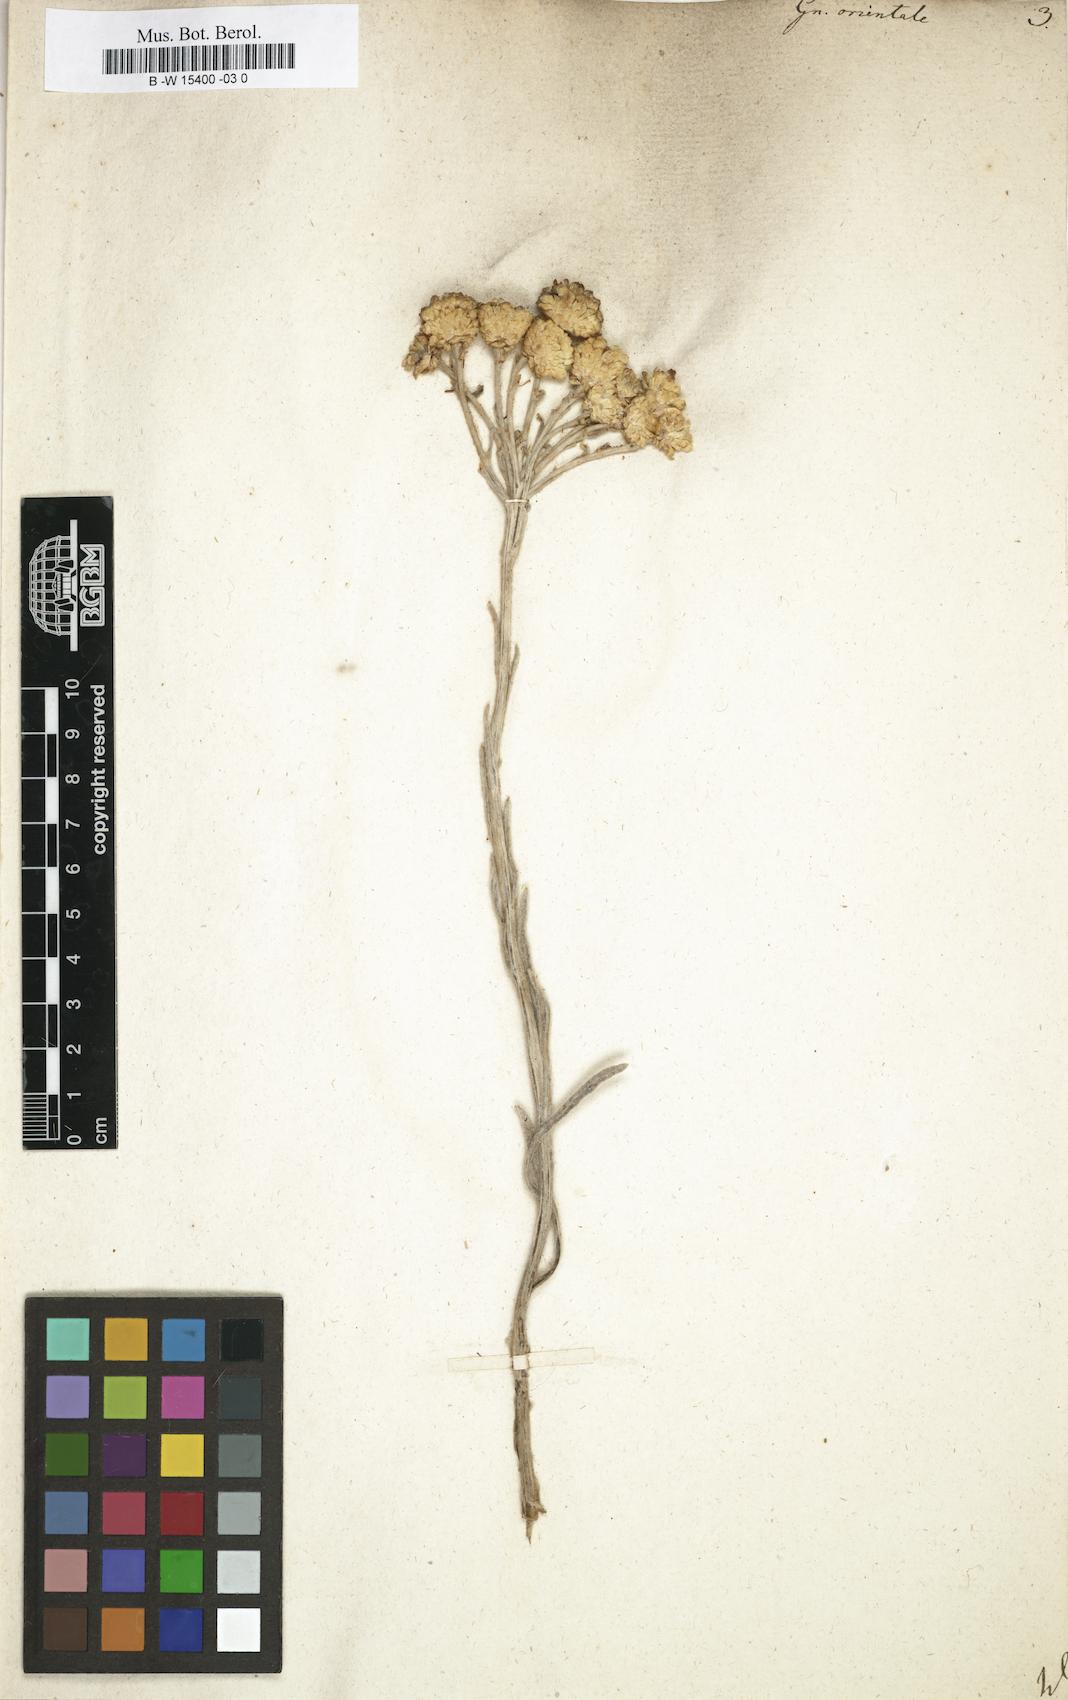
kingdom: Plantae
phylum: Tracheophyta
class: Magnoliopsida
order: Asterales
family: Asteraceae
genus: Helichrysum
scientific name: Helichrysum orientale
